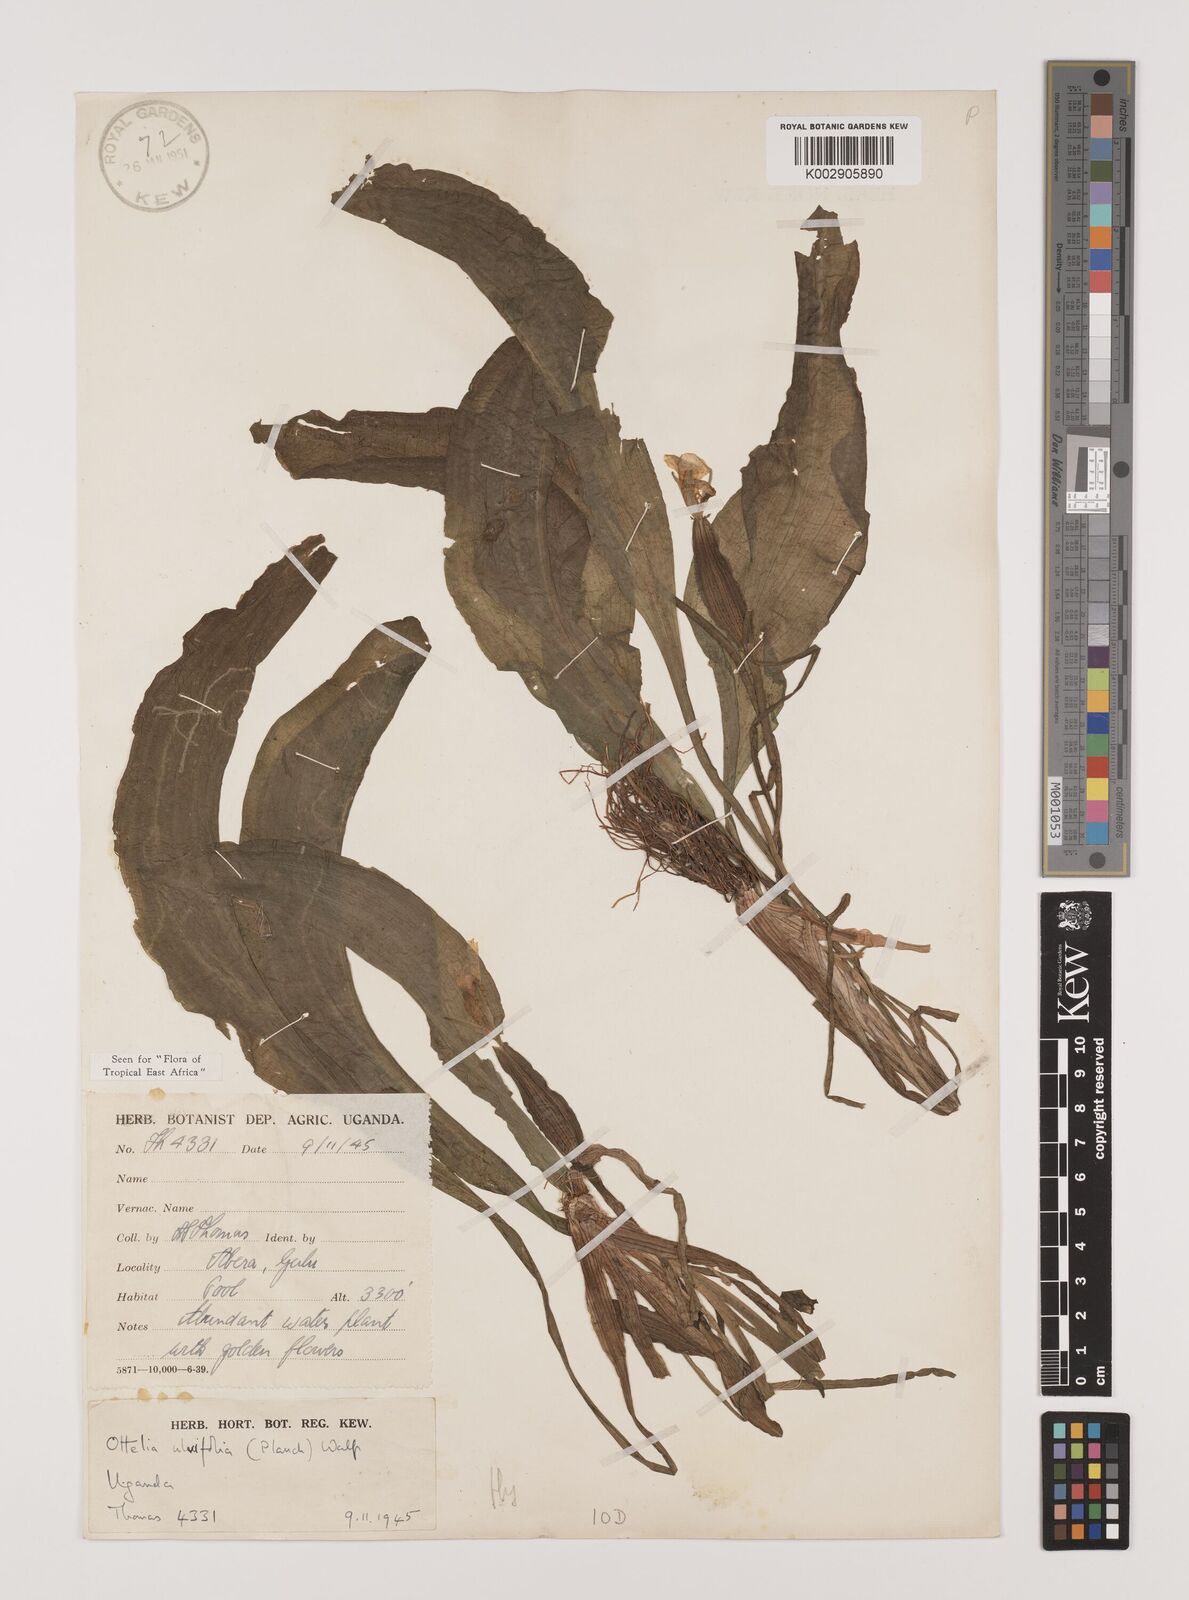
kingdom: Plantae
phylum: Tracheophyta
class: Liliopsida
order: Alismatales
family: Hydrocharitaceae
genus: Ottelia
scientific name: Ottelia ulvifolia
